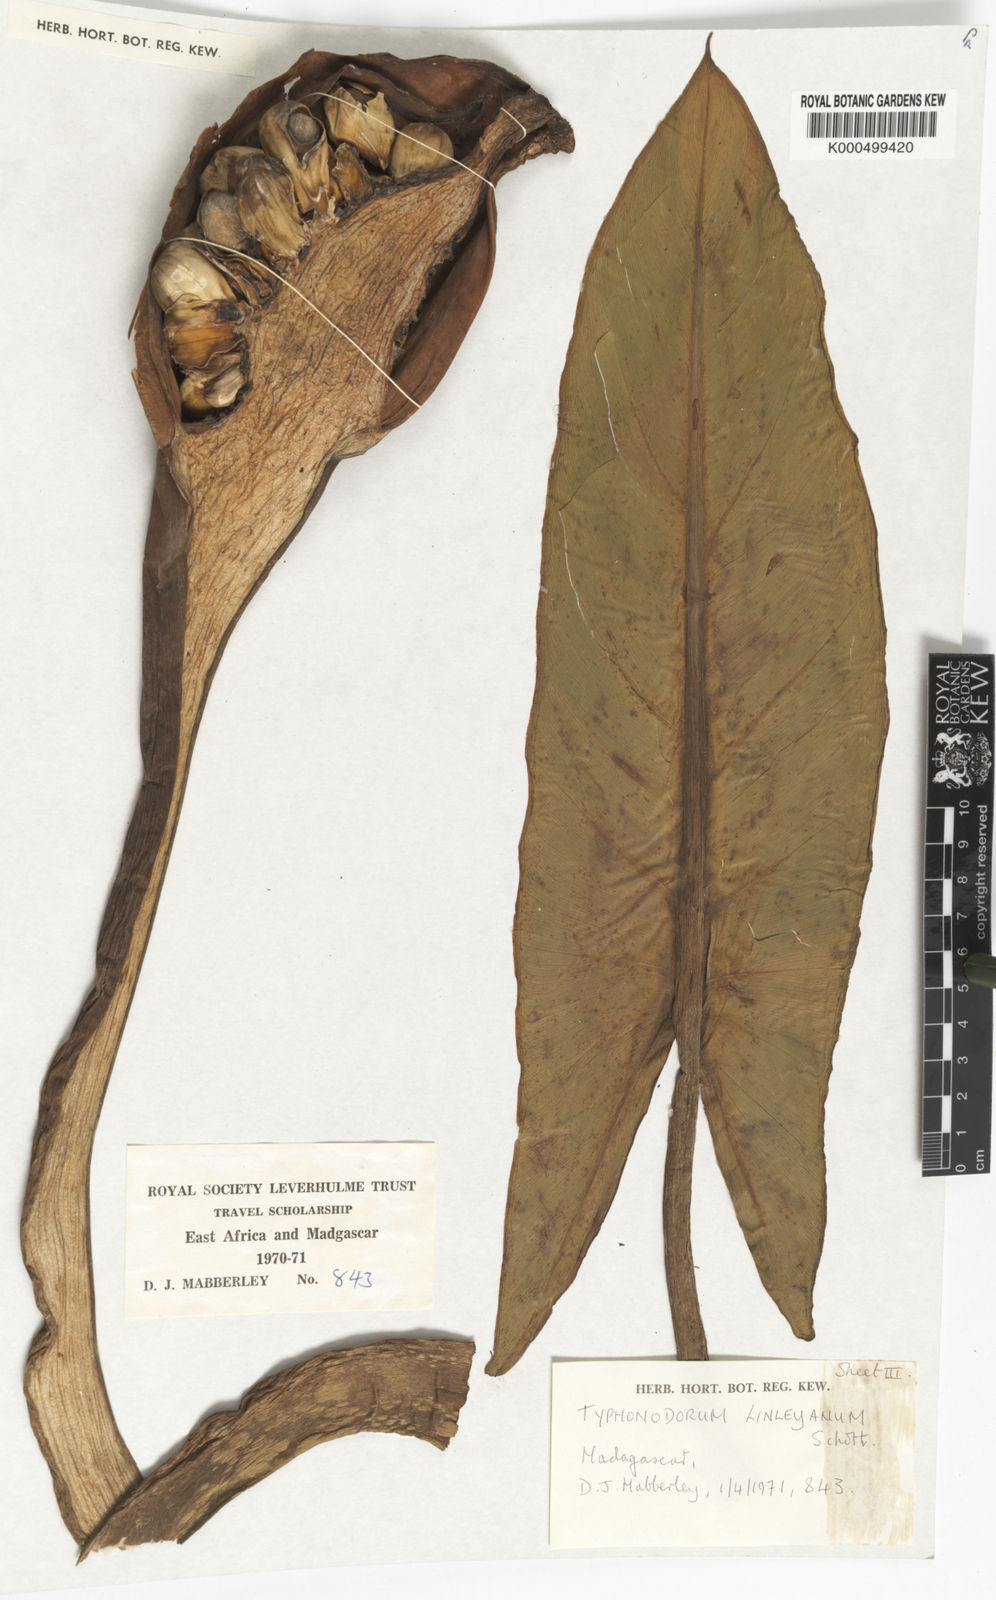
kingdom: Plantae
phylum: Tracheophyta
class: Liliopsida
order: Alismatales
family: Araceae
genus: Typhonodorum
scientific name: Typhonodorum
